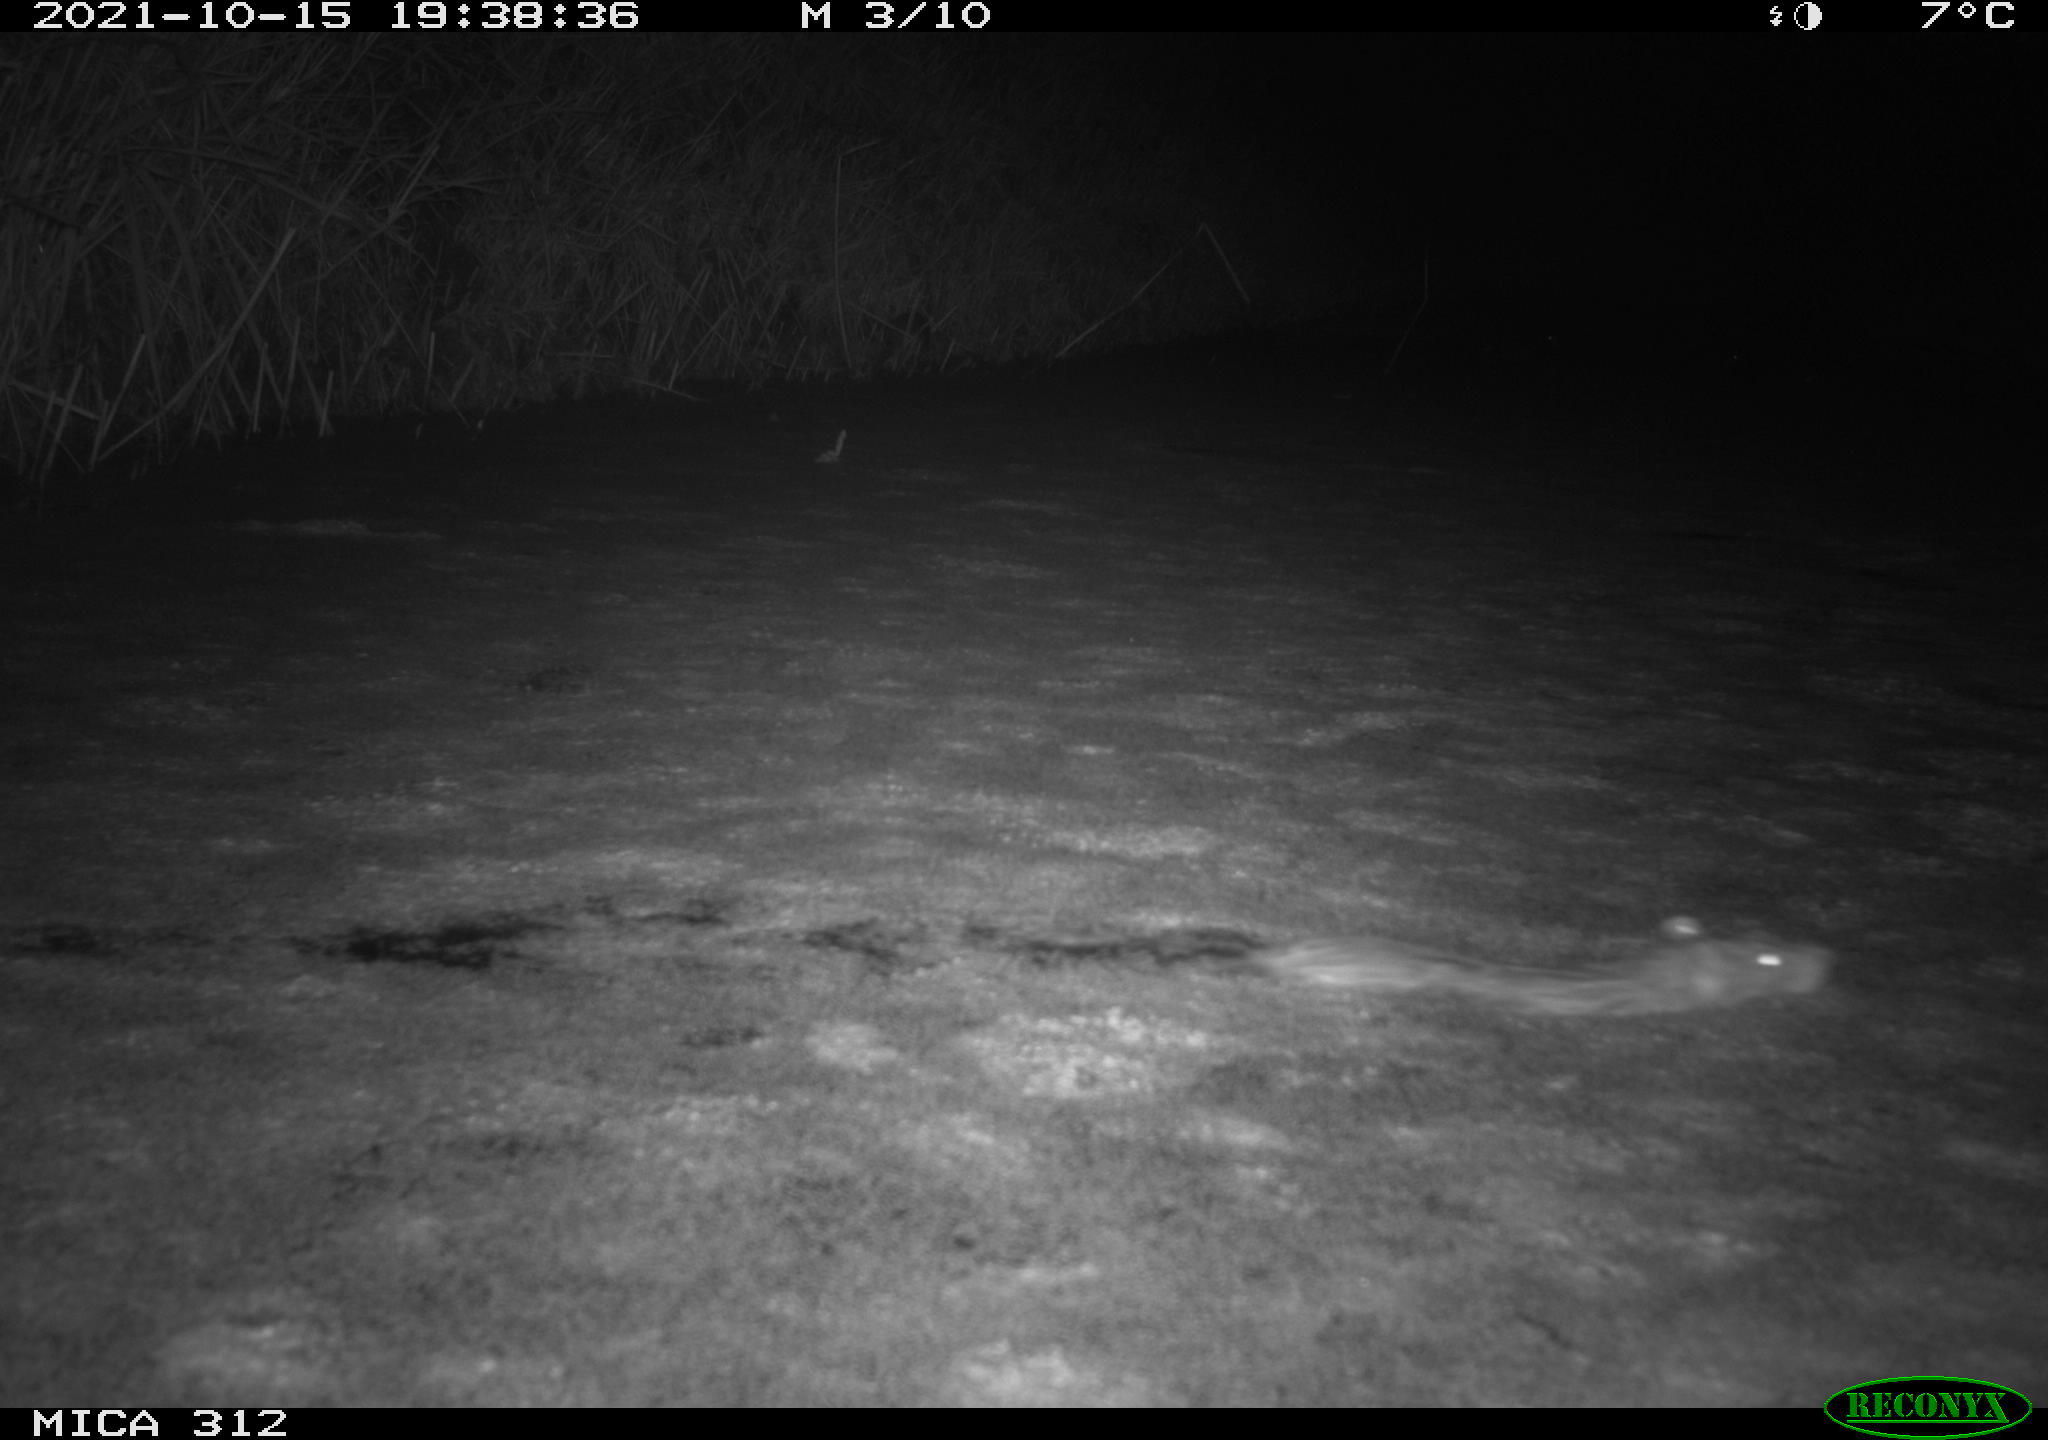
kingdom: Animalia
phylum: Chordata
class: Mammalia
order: Rodentia
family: Muridae
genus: Rattus
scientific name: Rattus norvegicus
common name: Brown rat
